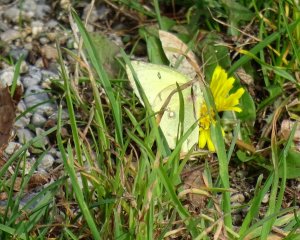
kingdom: Animalia
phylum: Arthropoda
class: Insecta
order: Lepidoptera
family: Pieridae
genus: Colias
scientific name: Colias philodice
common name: Clouded Sulphur
